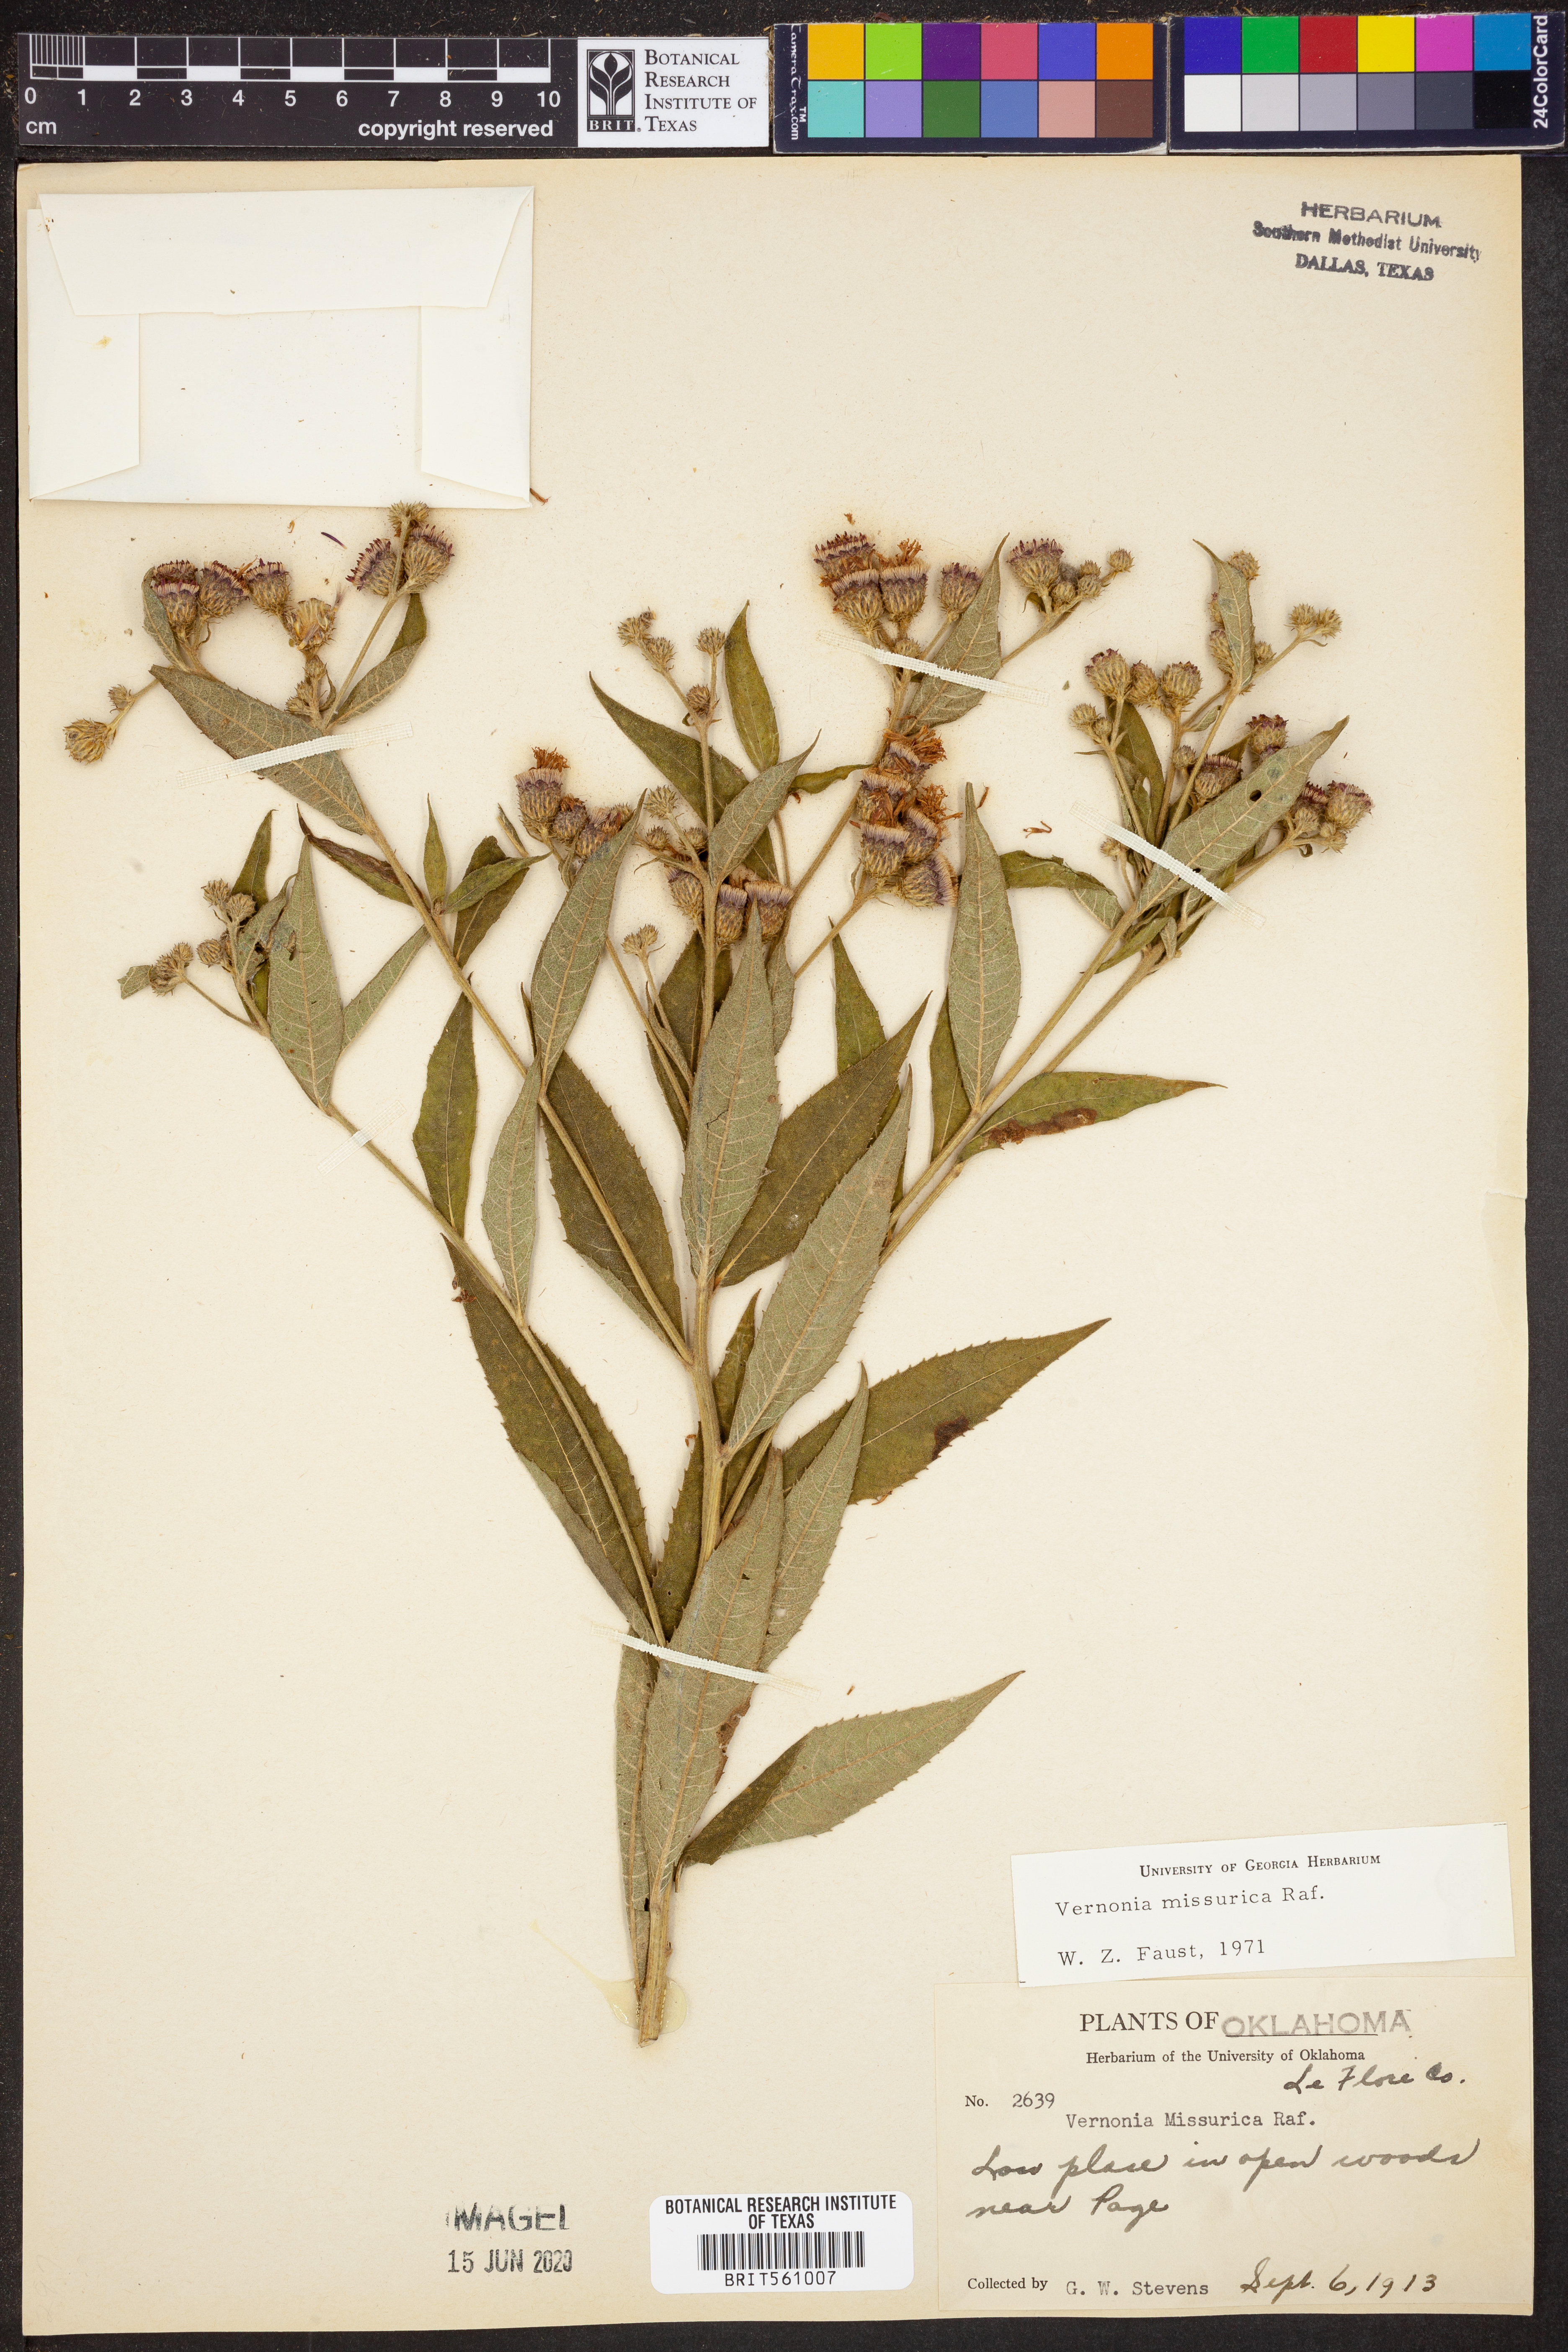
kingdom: Plantae
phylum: Tracheophyta
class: Magnoliopsida
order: Asterales
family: Asteraceae
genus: Vernonia
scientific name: Vernonia missurica
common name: Missouri ironweed
